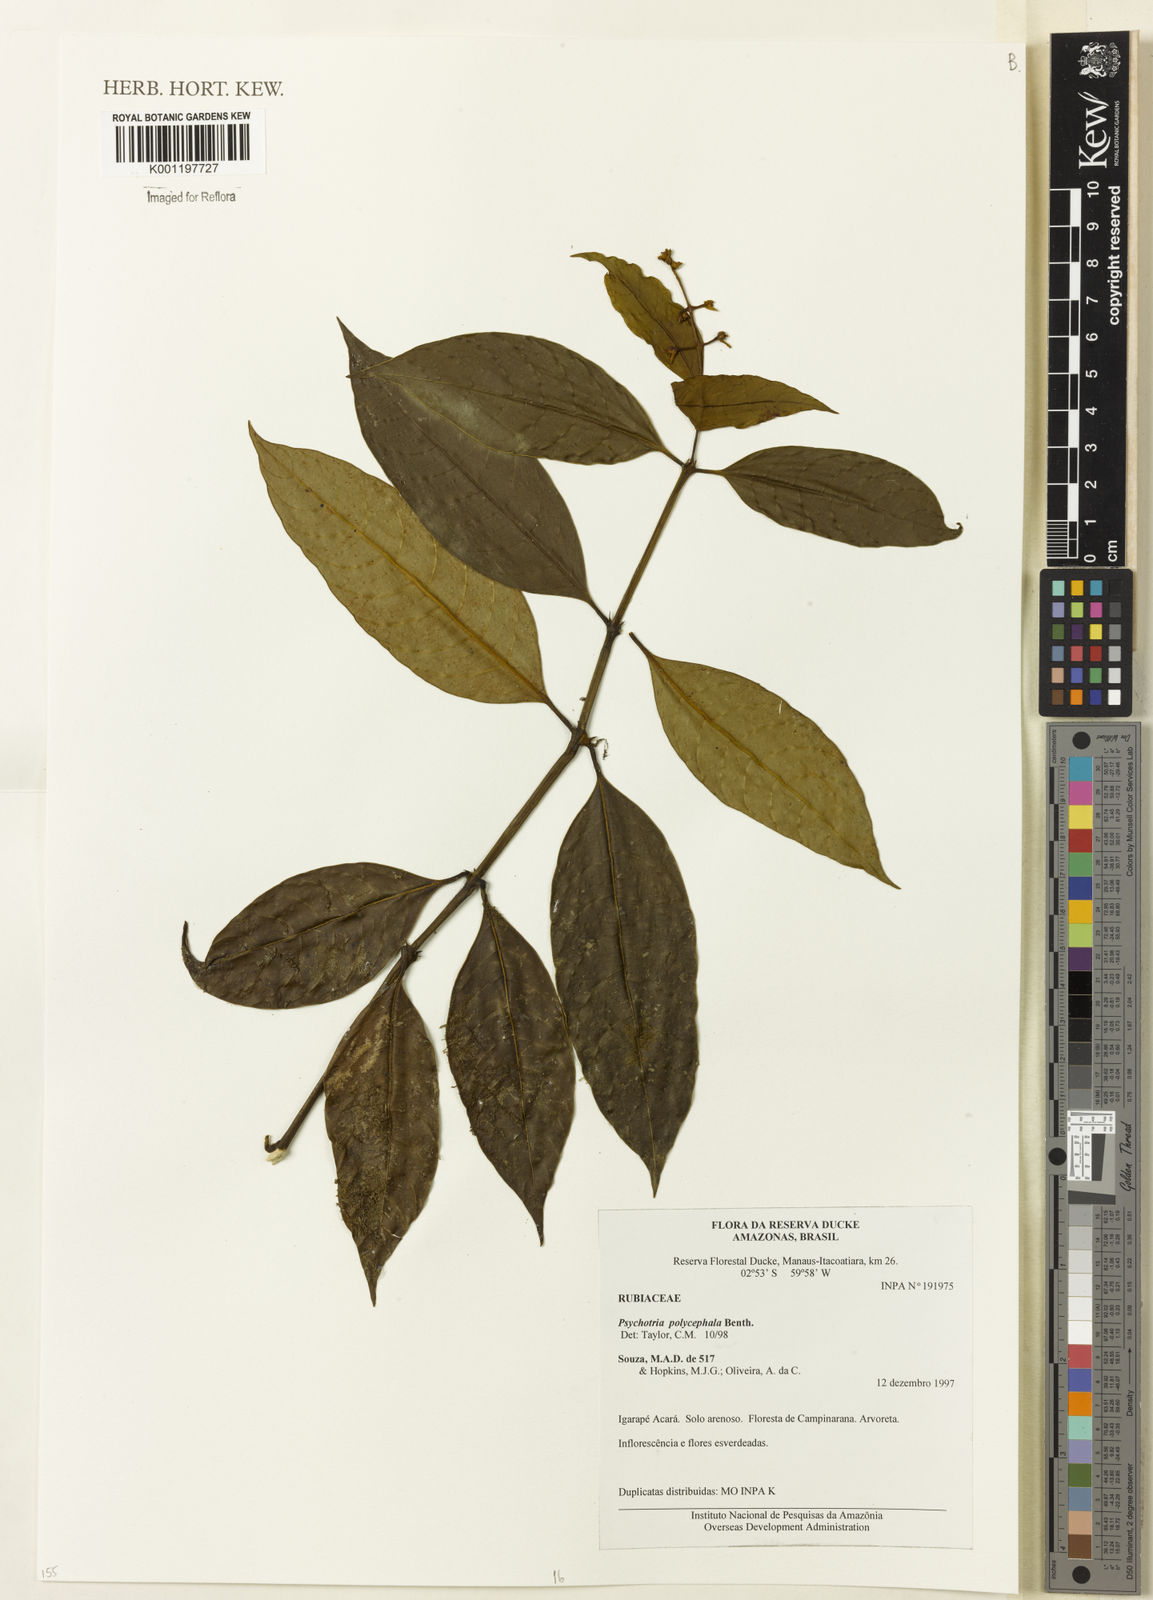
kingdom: Plantae
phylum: Tracheophyta
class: Magnoliopsida
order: Gentianales
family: Rubiaceae
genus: Palicourea
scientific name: Palicourea polycephala
